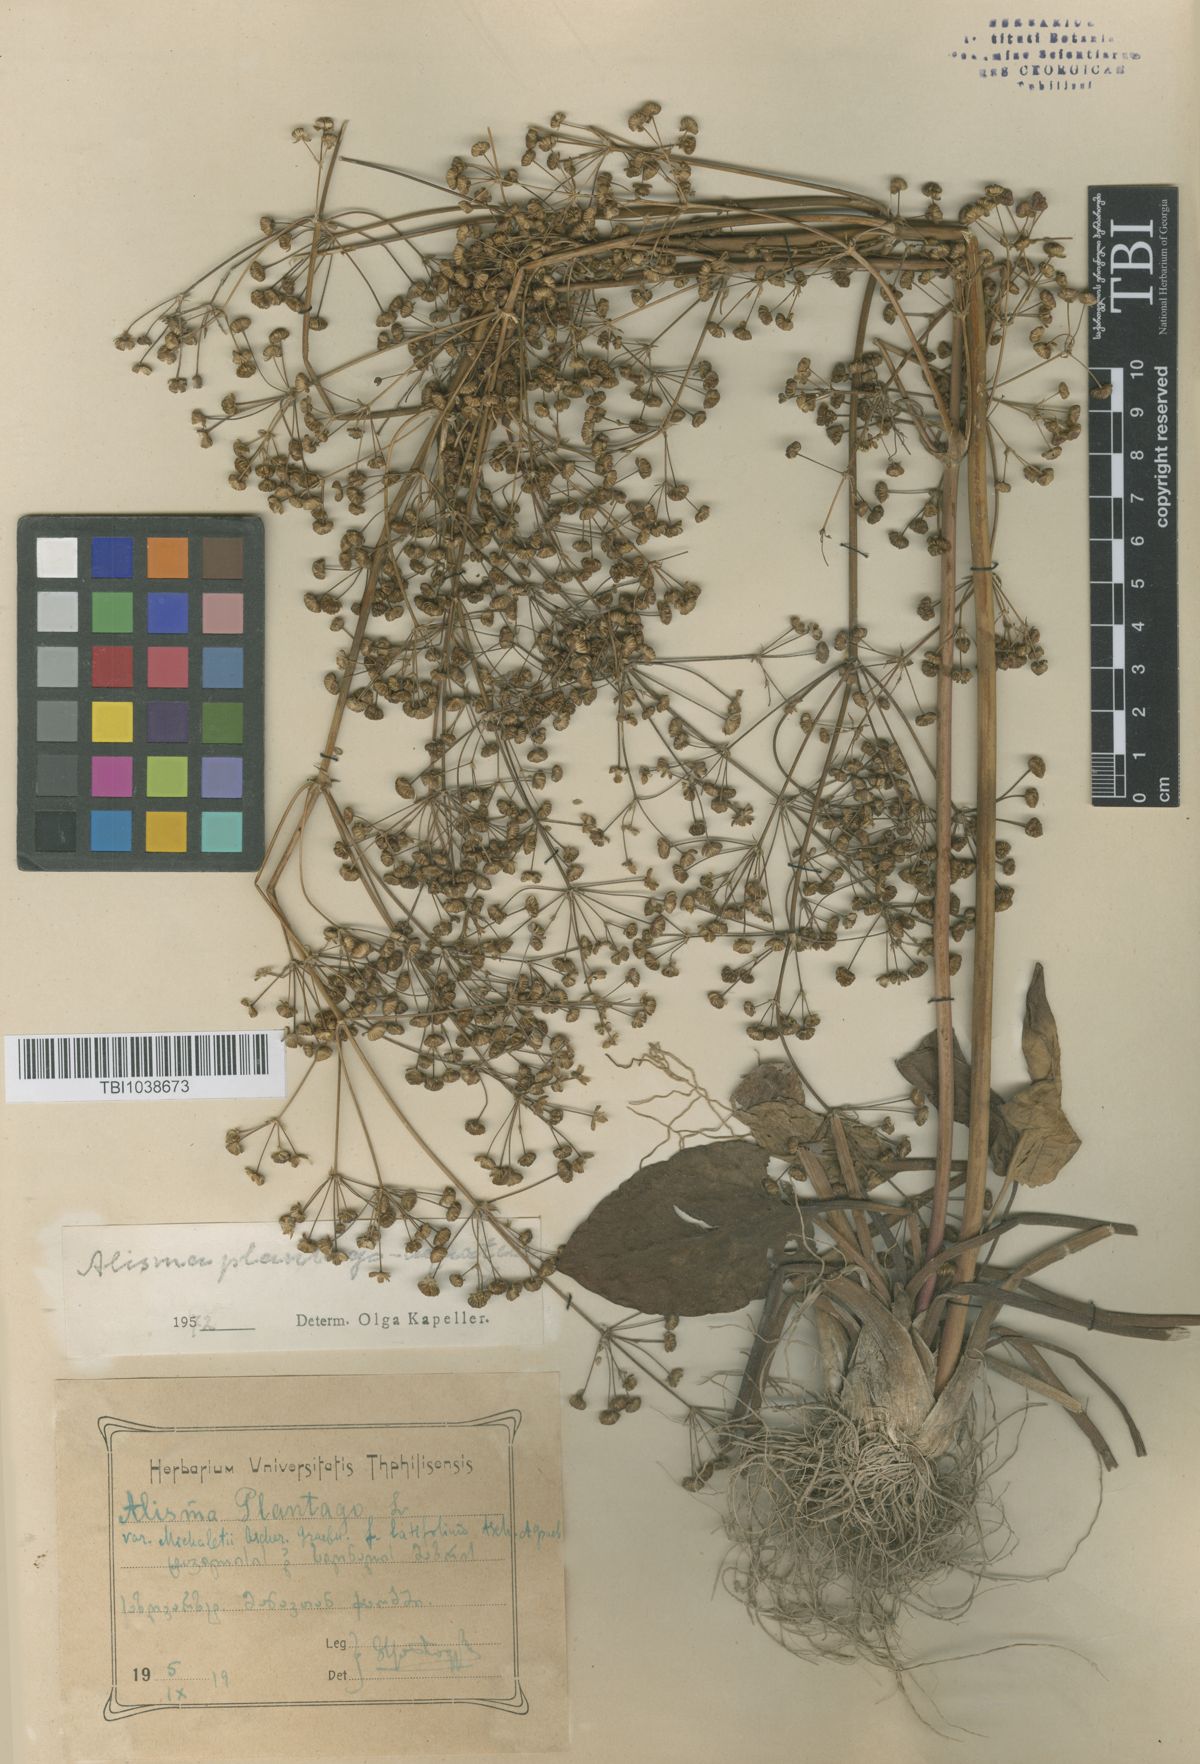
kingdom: Plantae
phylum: Tracheophyta
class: Liliopsida
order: Alismatales
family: Alismataceae
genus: Alisma
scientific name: Alisma plantago-aquatica
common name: Water-plantain
